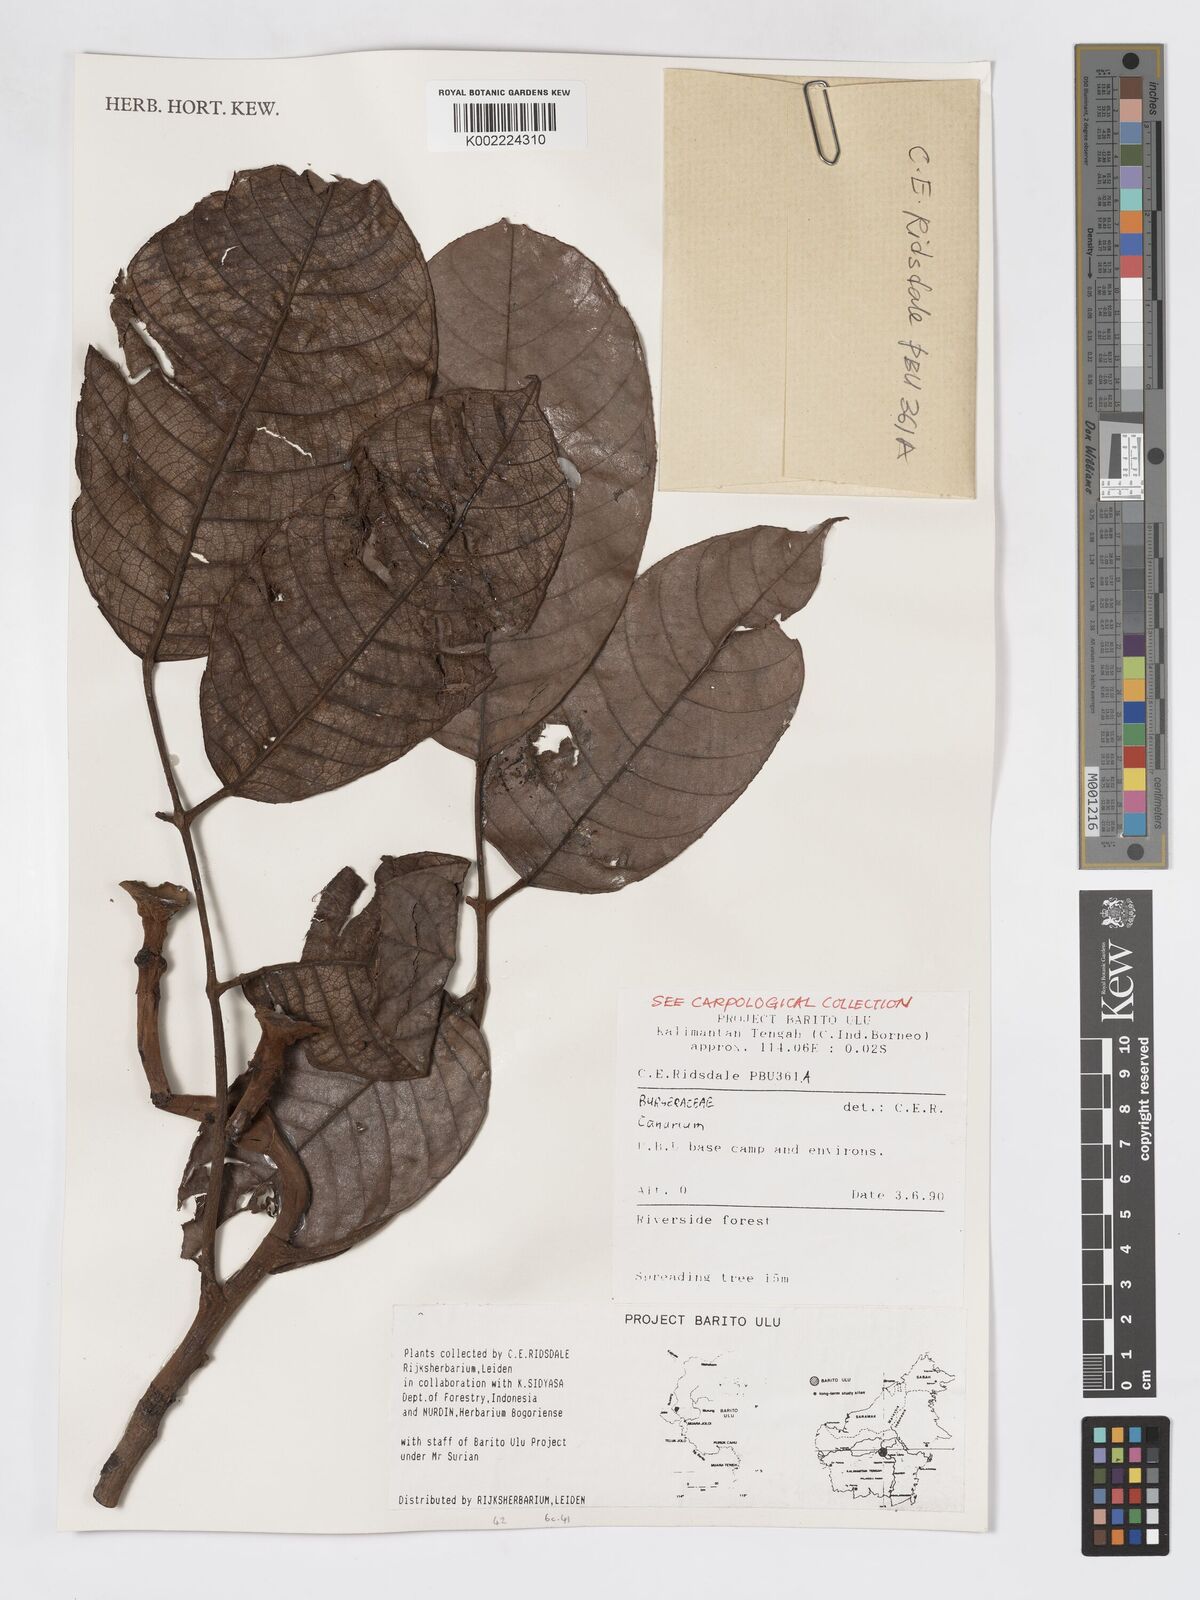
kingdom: Plantae
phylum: Tracheophyta
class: Magnoliopsida
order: Sapindales
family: Burseraceae
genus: Canarium
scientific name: Canarium
